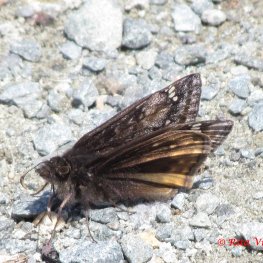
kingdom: Animalia
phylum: Arthropoda
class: Insecta
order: Lepidoptera
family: Hesperiidae
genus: Gesta
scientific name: Gesta
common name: Juvenal's Duskywing
